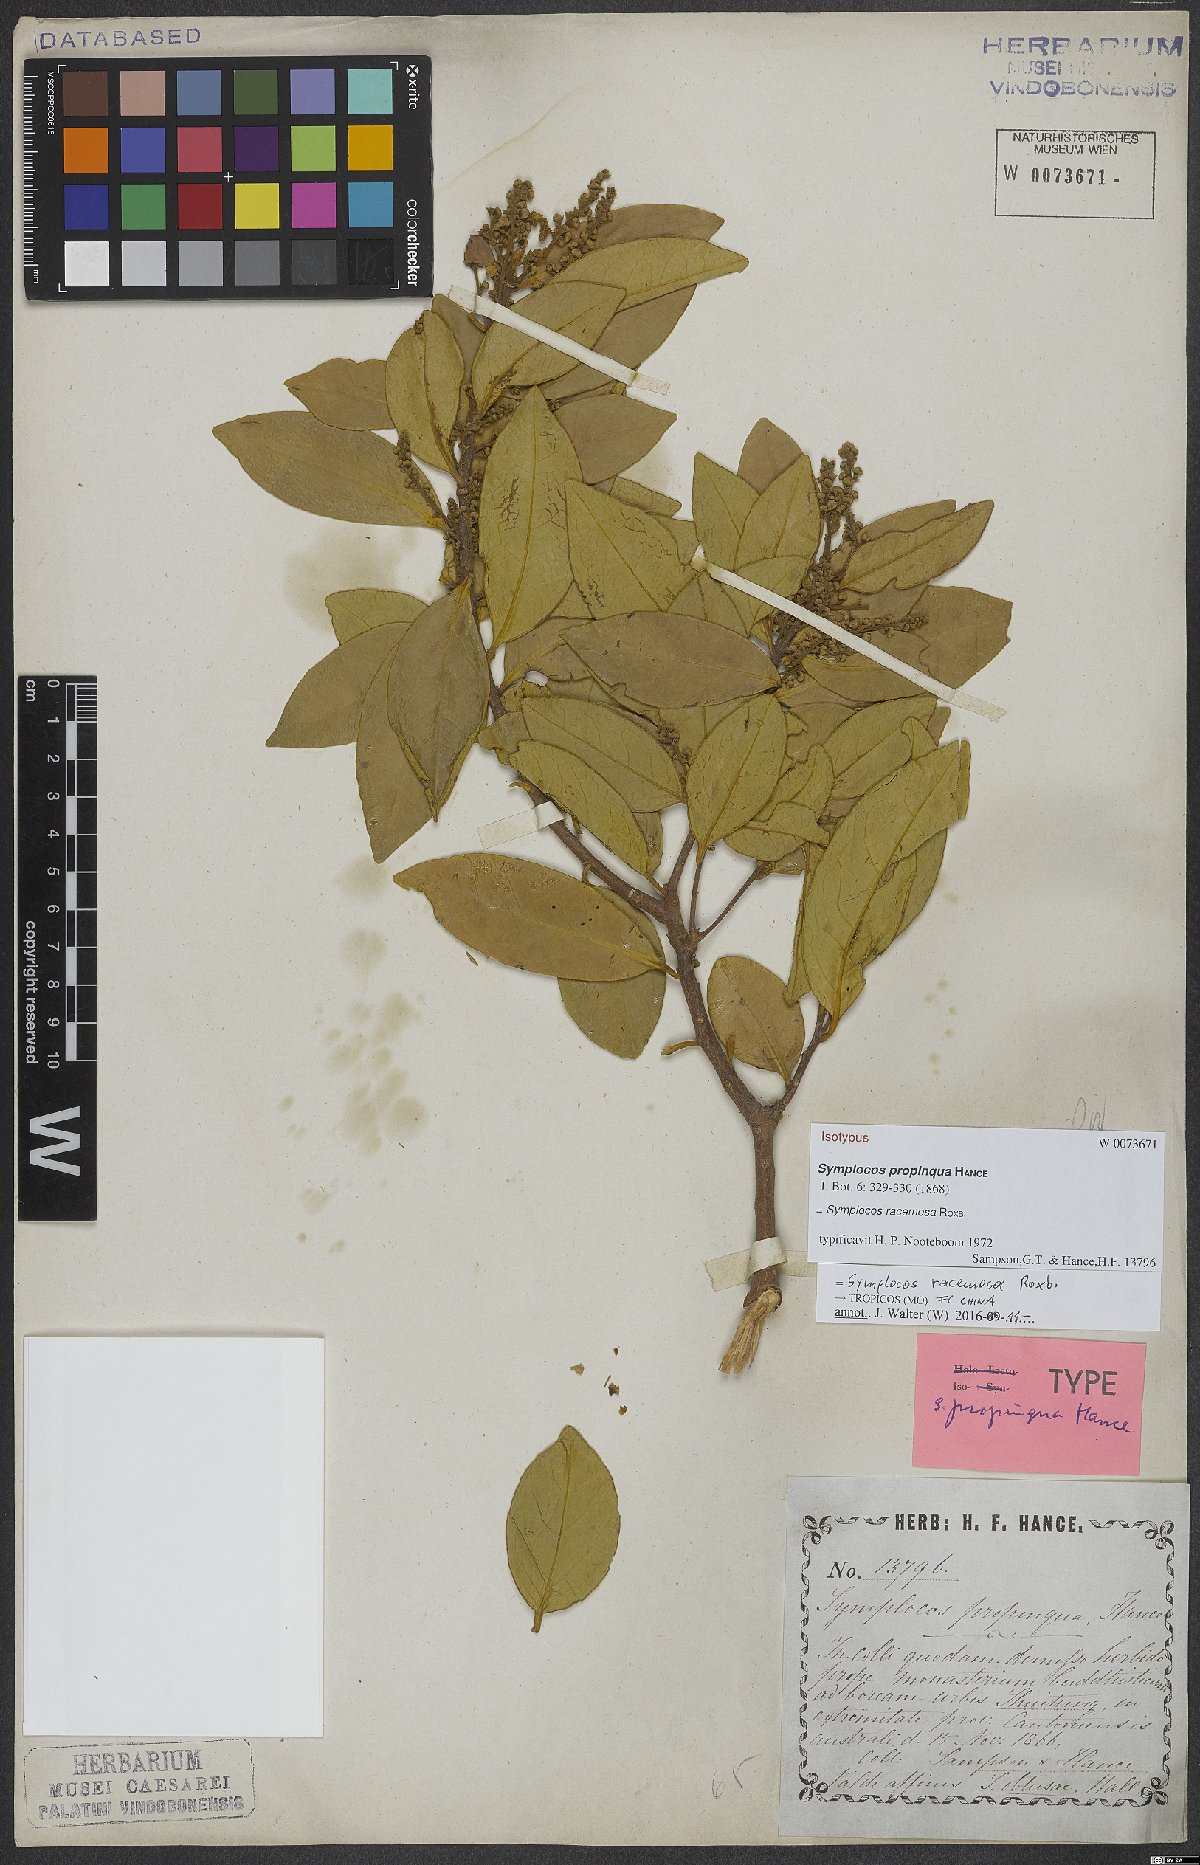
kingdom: Plantae
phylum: Tracheophyta
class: Magnoliopsida
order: Ericales
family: Symplocaceae
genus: Symplocos
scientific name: Symplocos racemosa
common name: Lodhtree
